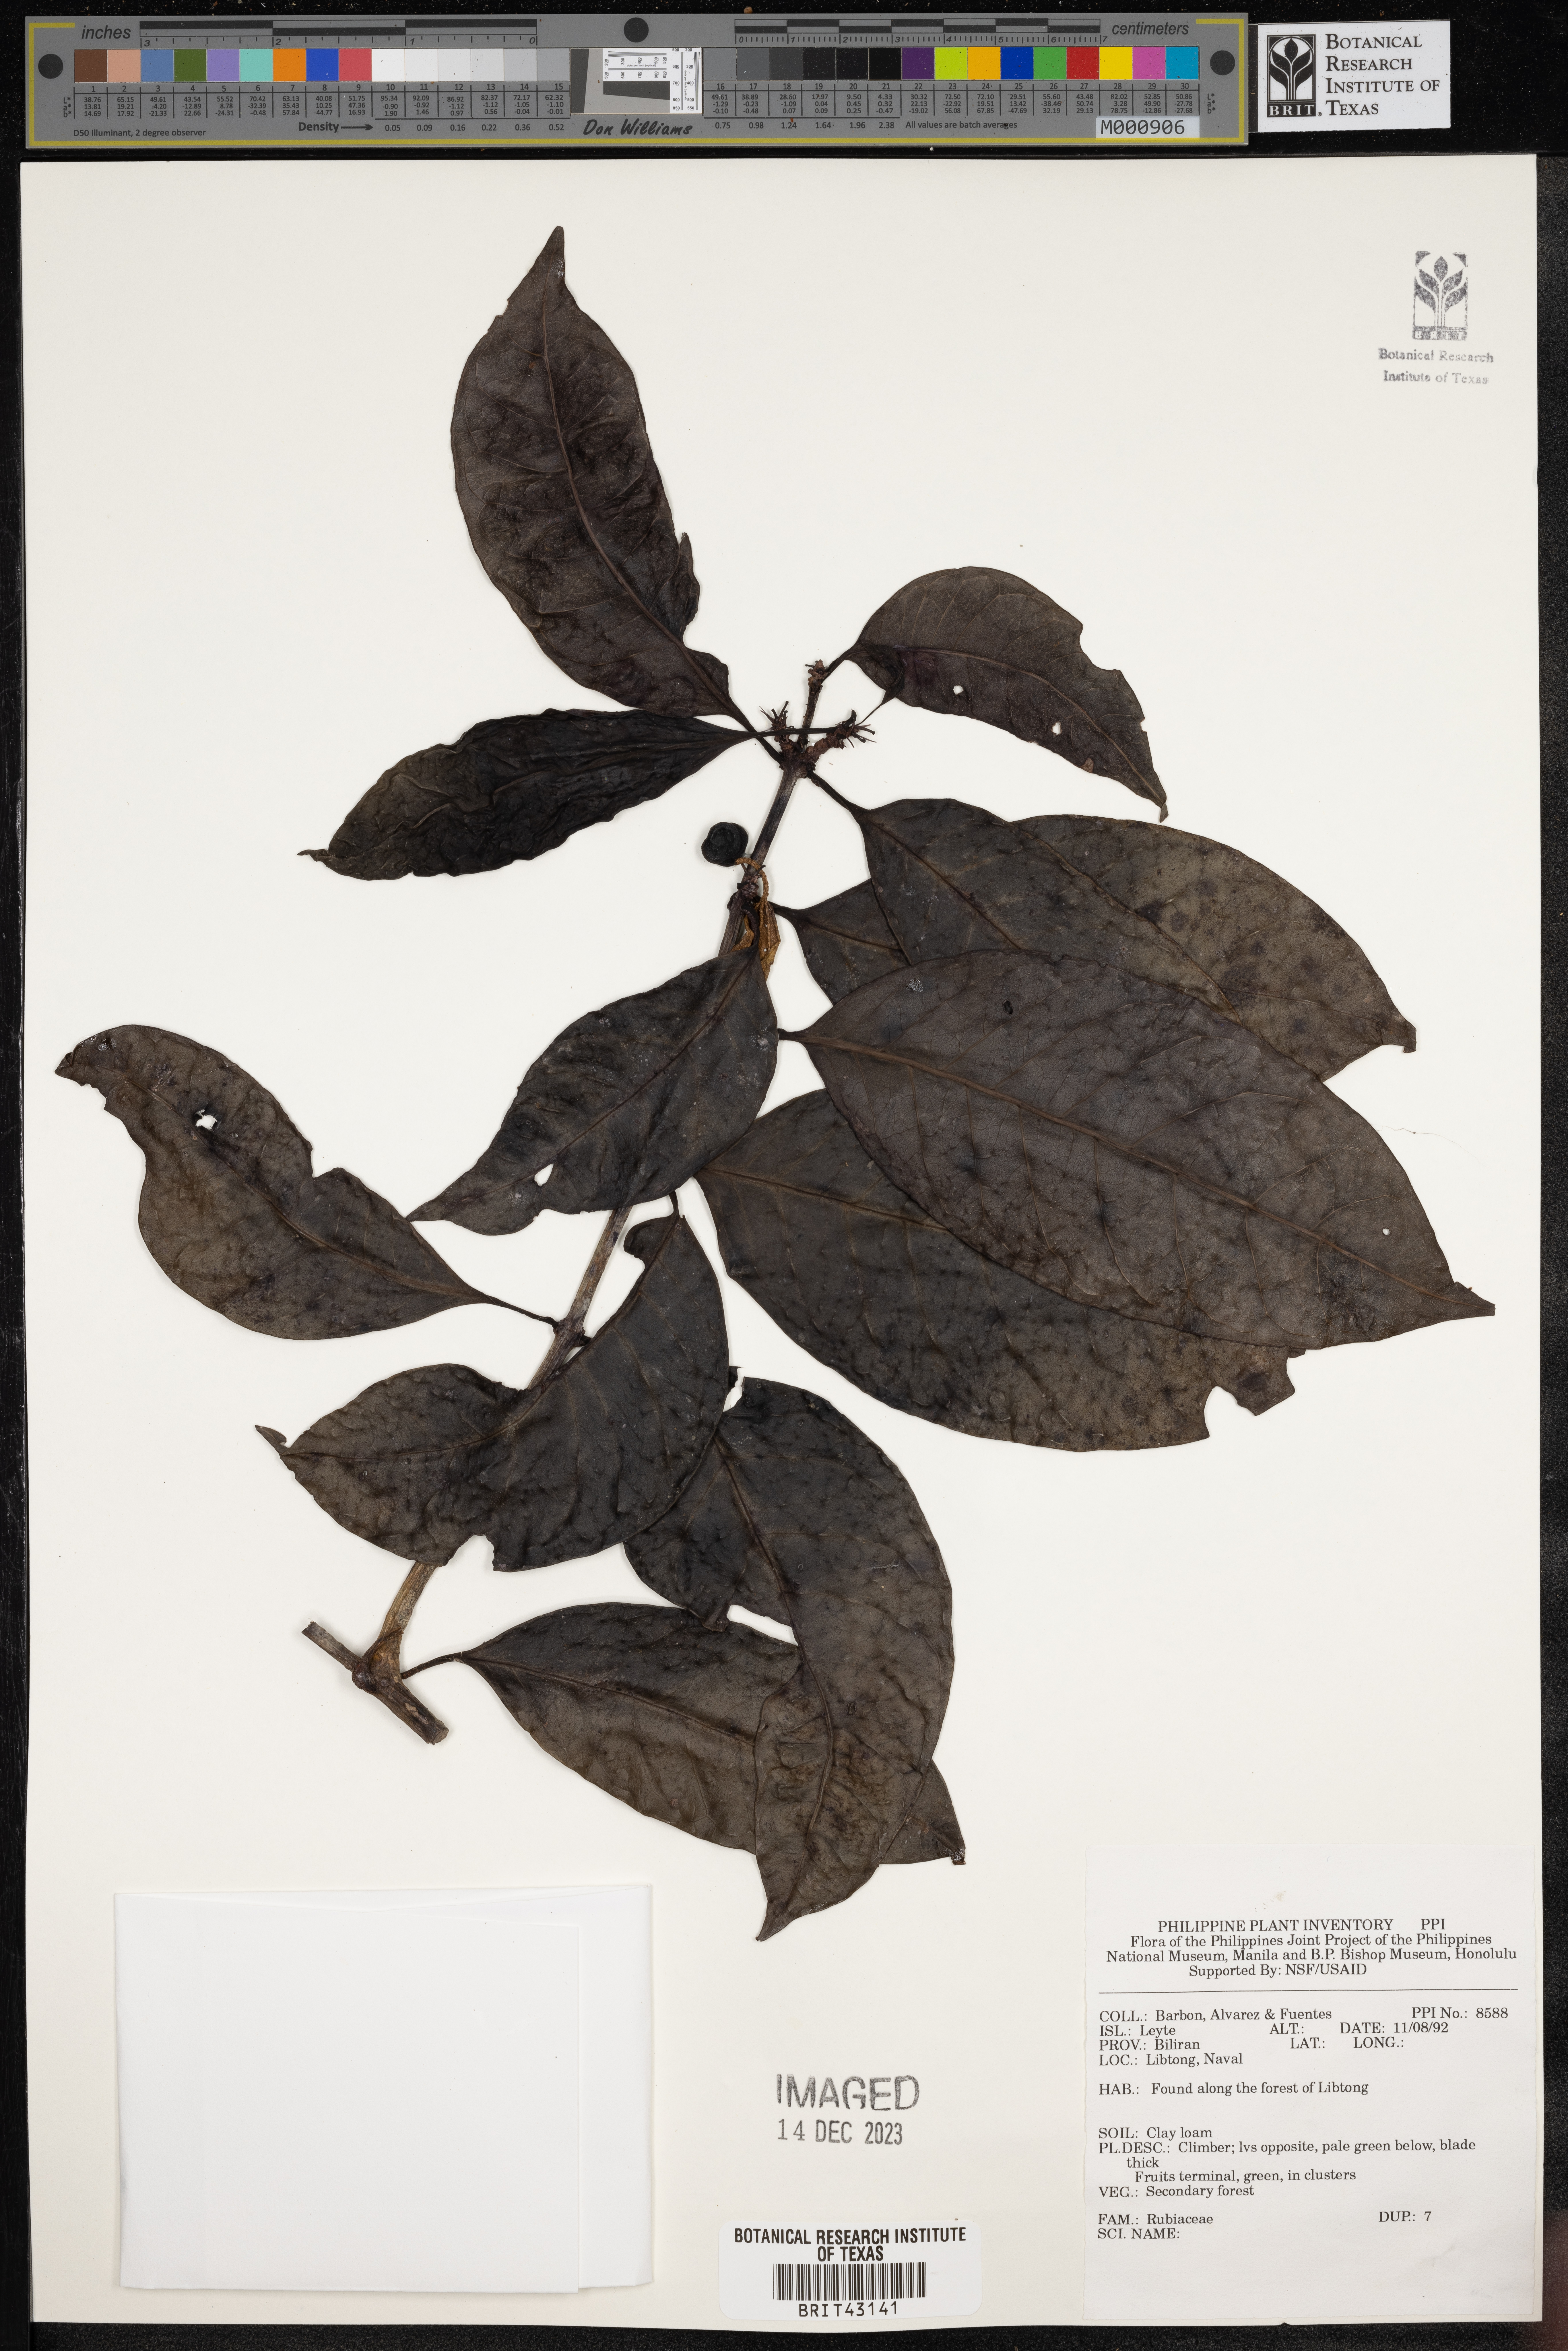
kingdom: Plantae
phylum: Tracheophyta
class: Magnoliopsida
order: Gentianales
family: Rubiaceae
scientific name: Rubiaceae
